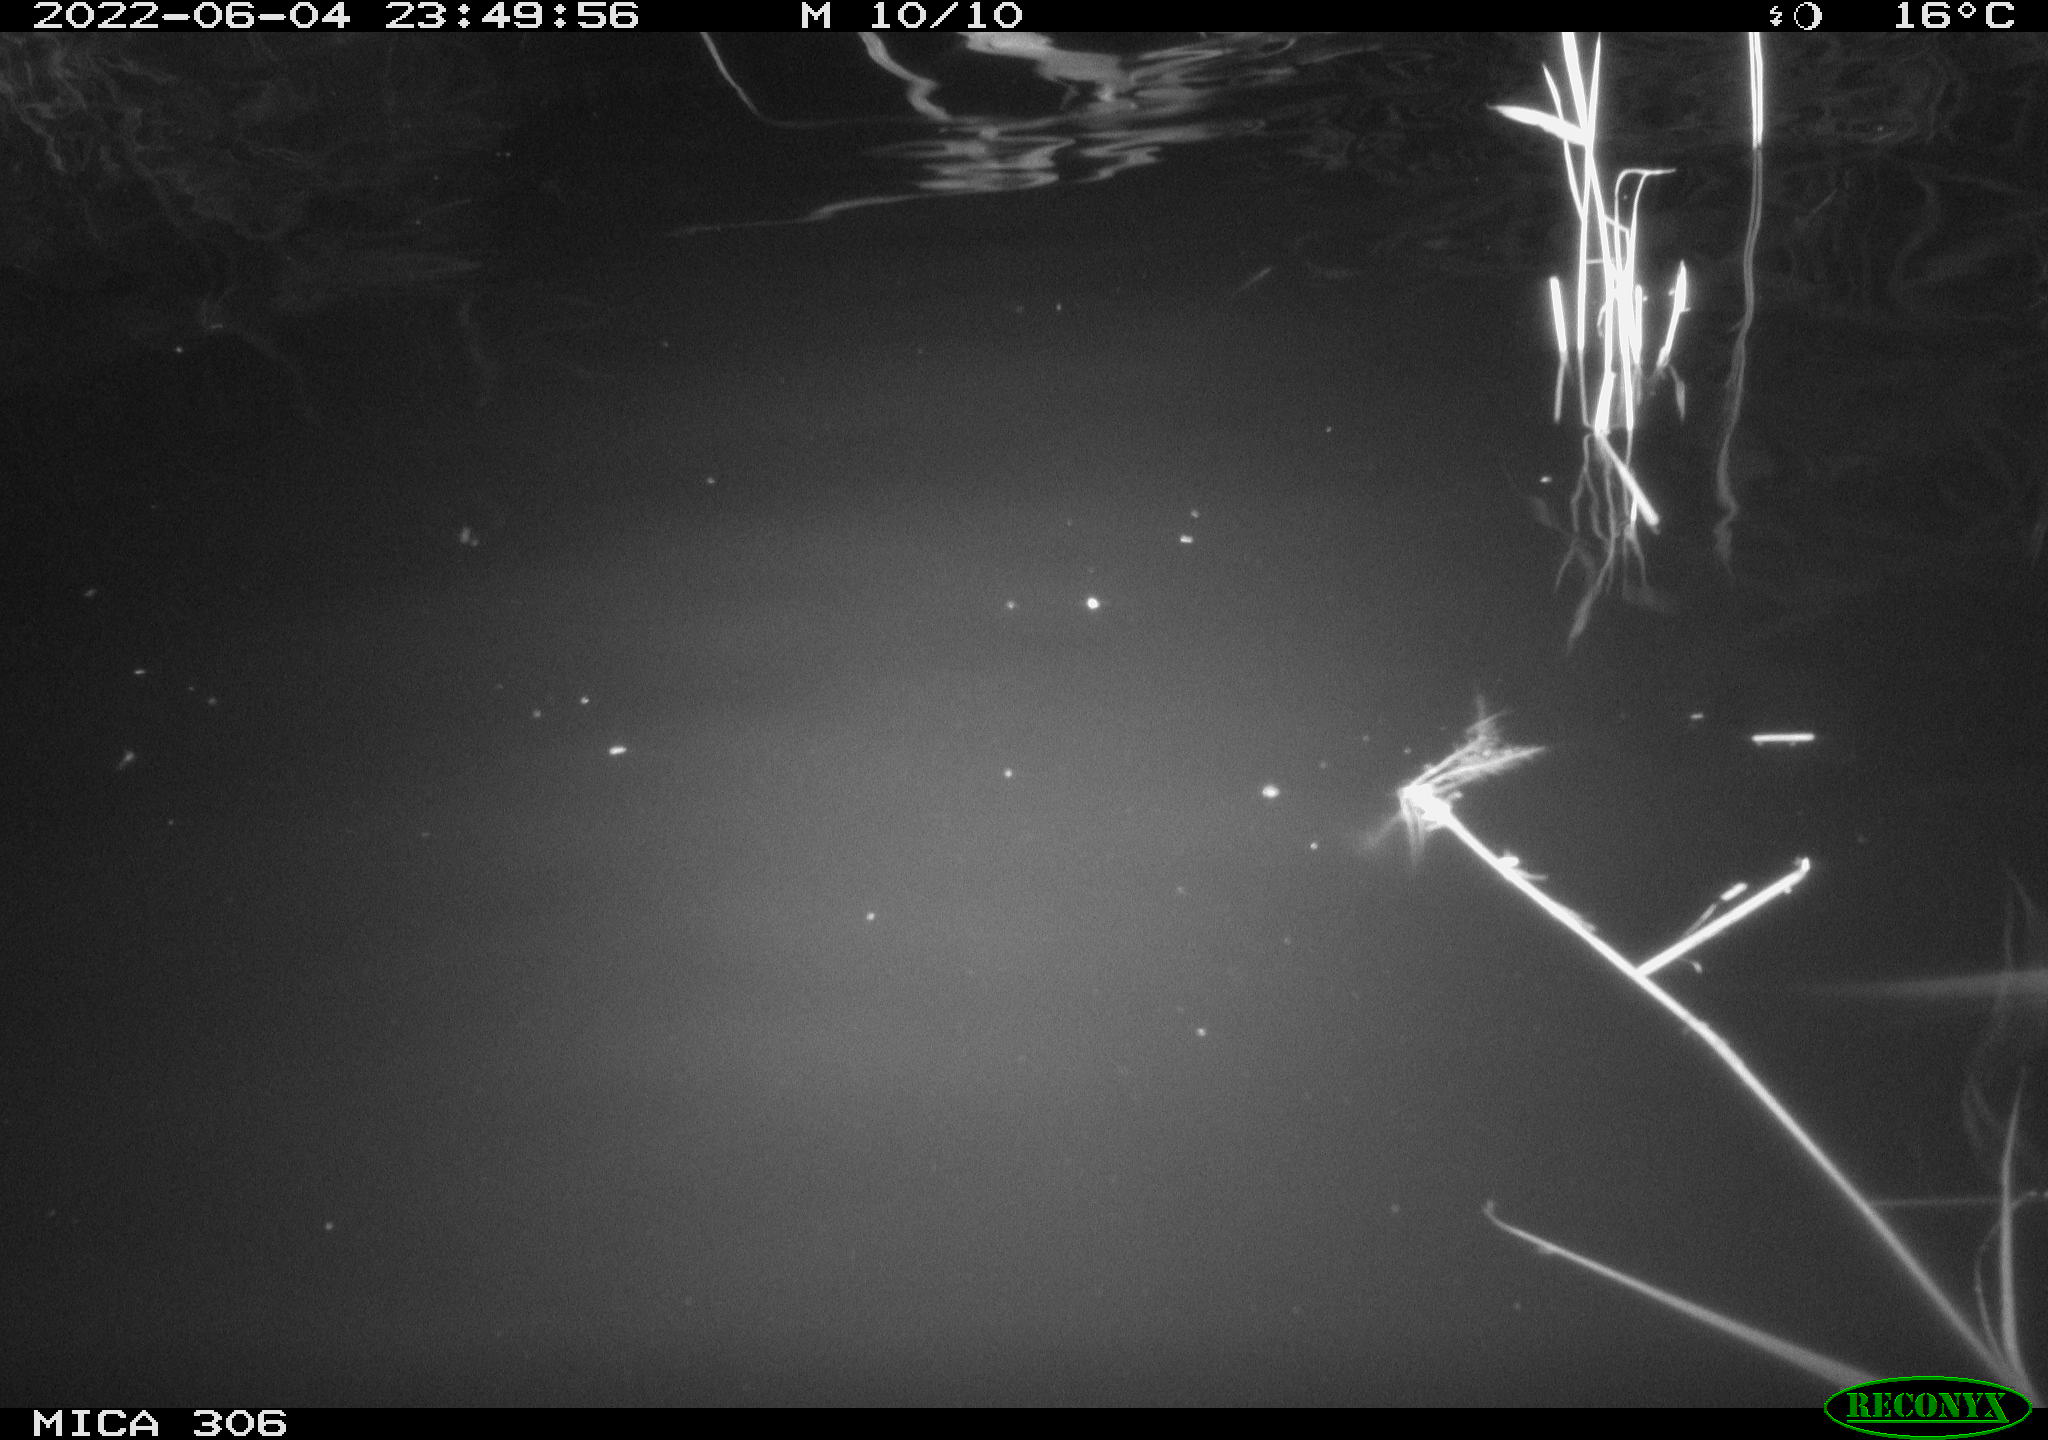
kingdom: Animalia
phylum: Chordata
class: Mammalia
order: Rodentia
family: Cricetidae
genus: Ondatra
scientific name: Ondatra zibethicus
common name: Muskrat
